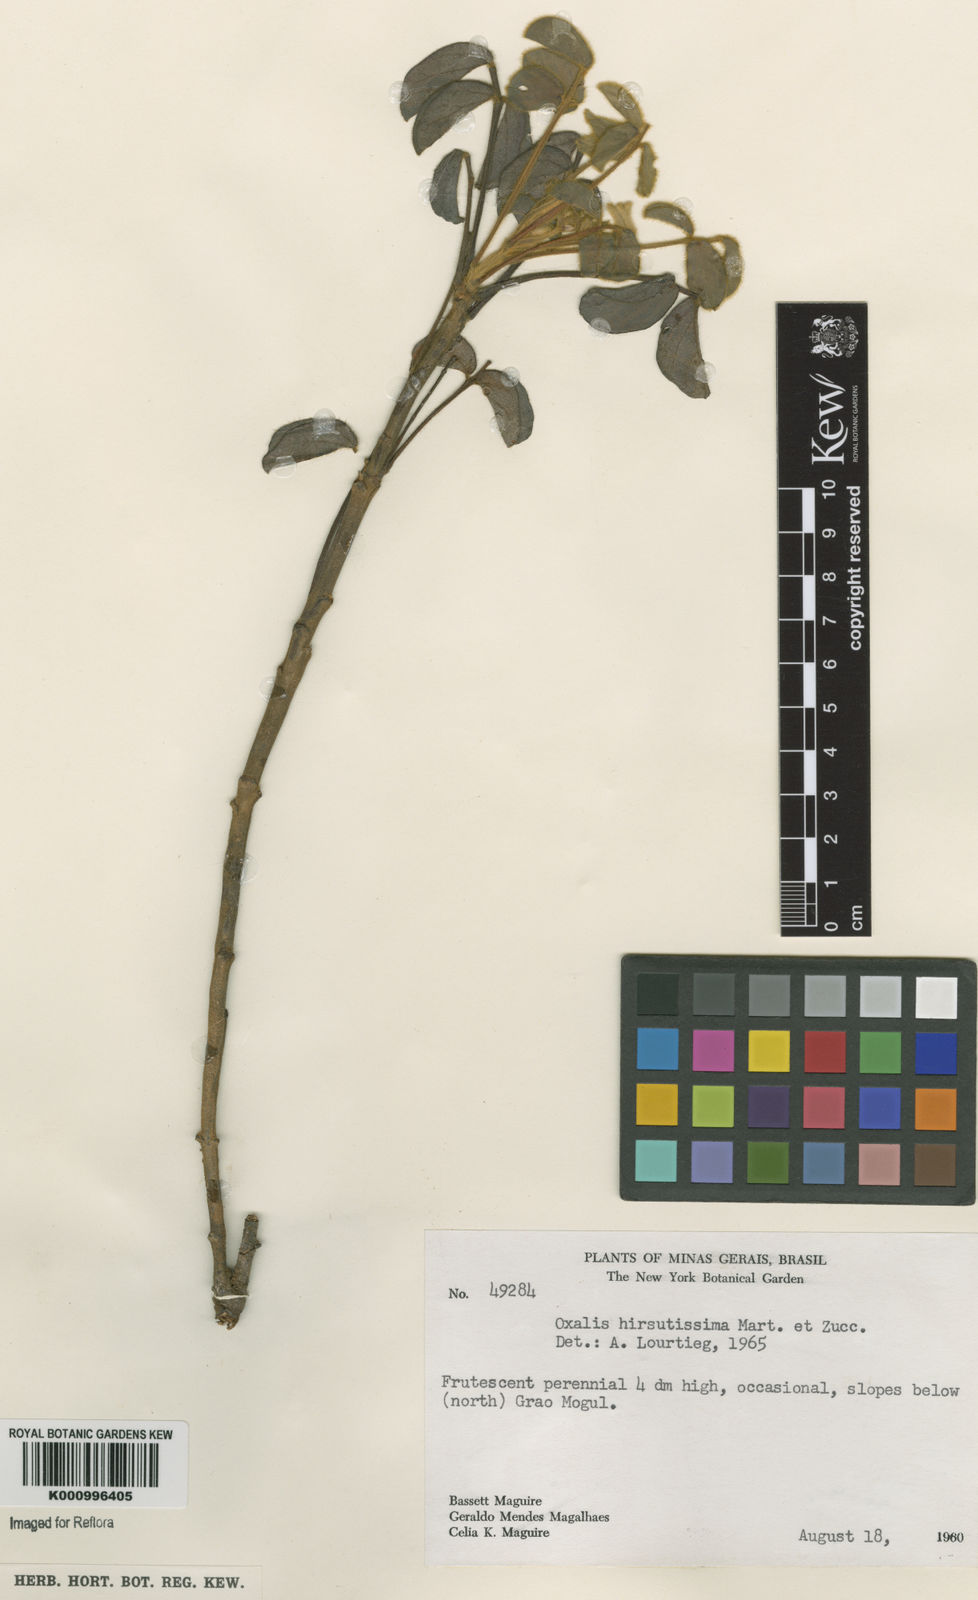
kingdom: Plantae
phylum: Tracheophyta
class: Magnoliopsida
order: Oxalidales
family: Oxalidaceae
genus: Oxalis
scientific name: Oxalis hirsutissima
